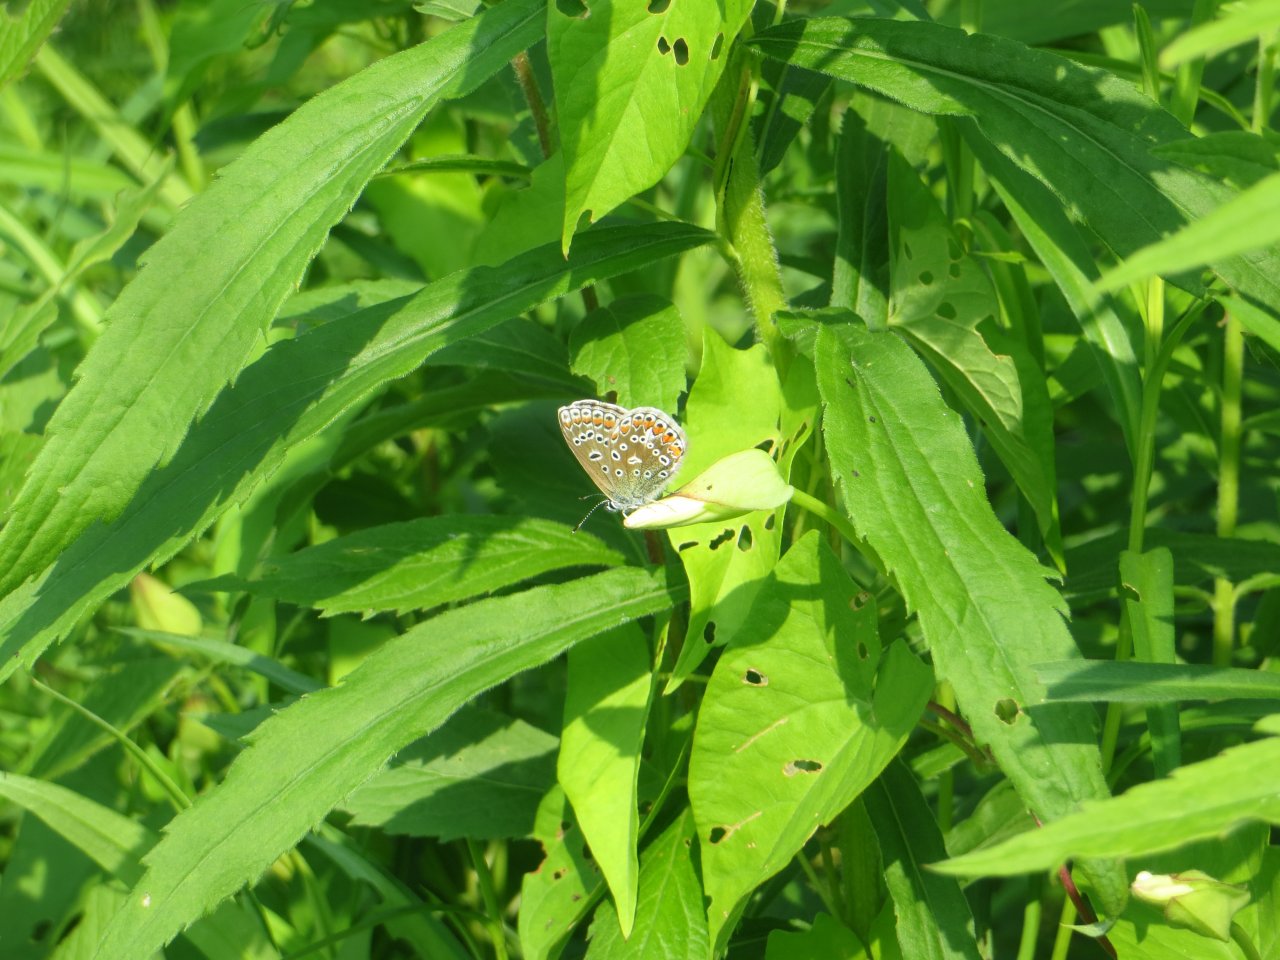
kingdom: Animalia
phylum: Arthropoda
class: Insecta
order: Lepidoptera
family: Lycaenidae
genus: Satyrium
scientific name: Satyrium liparops
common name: Striped Hairstreak
